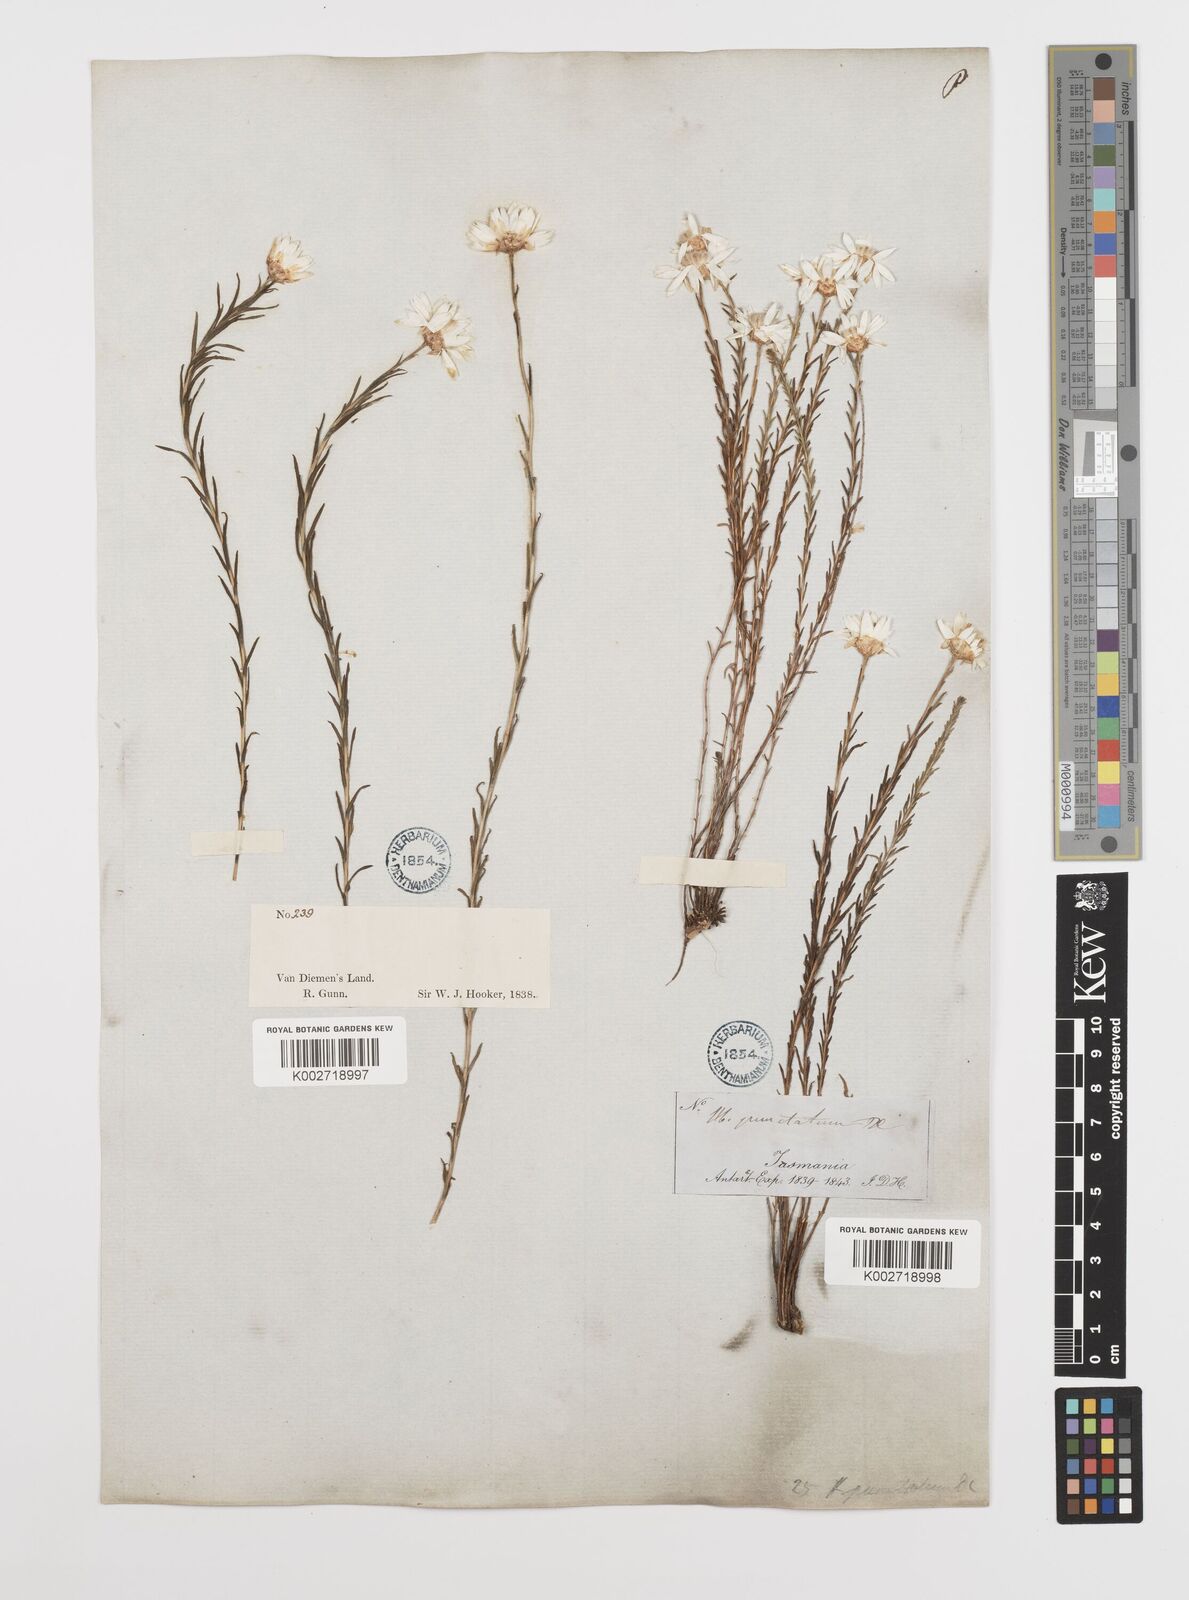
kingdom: Plantae
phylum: Tracheophyta
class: Magnoliopsida
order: Asterales
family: Asteraceae
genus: Rhodanthe
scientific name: Rhodanthe anthemoides
